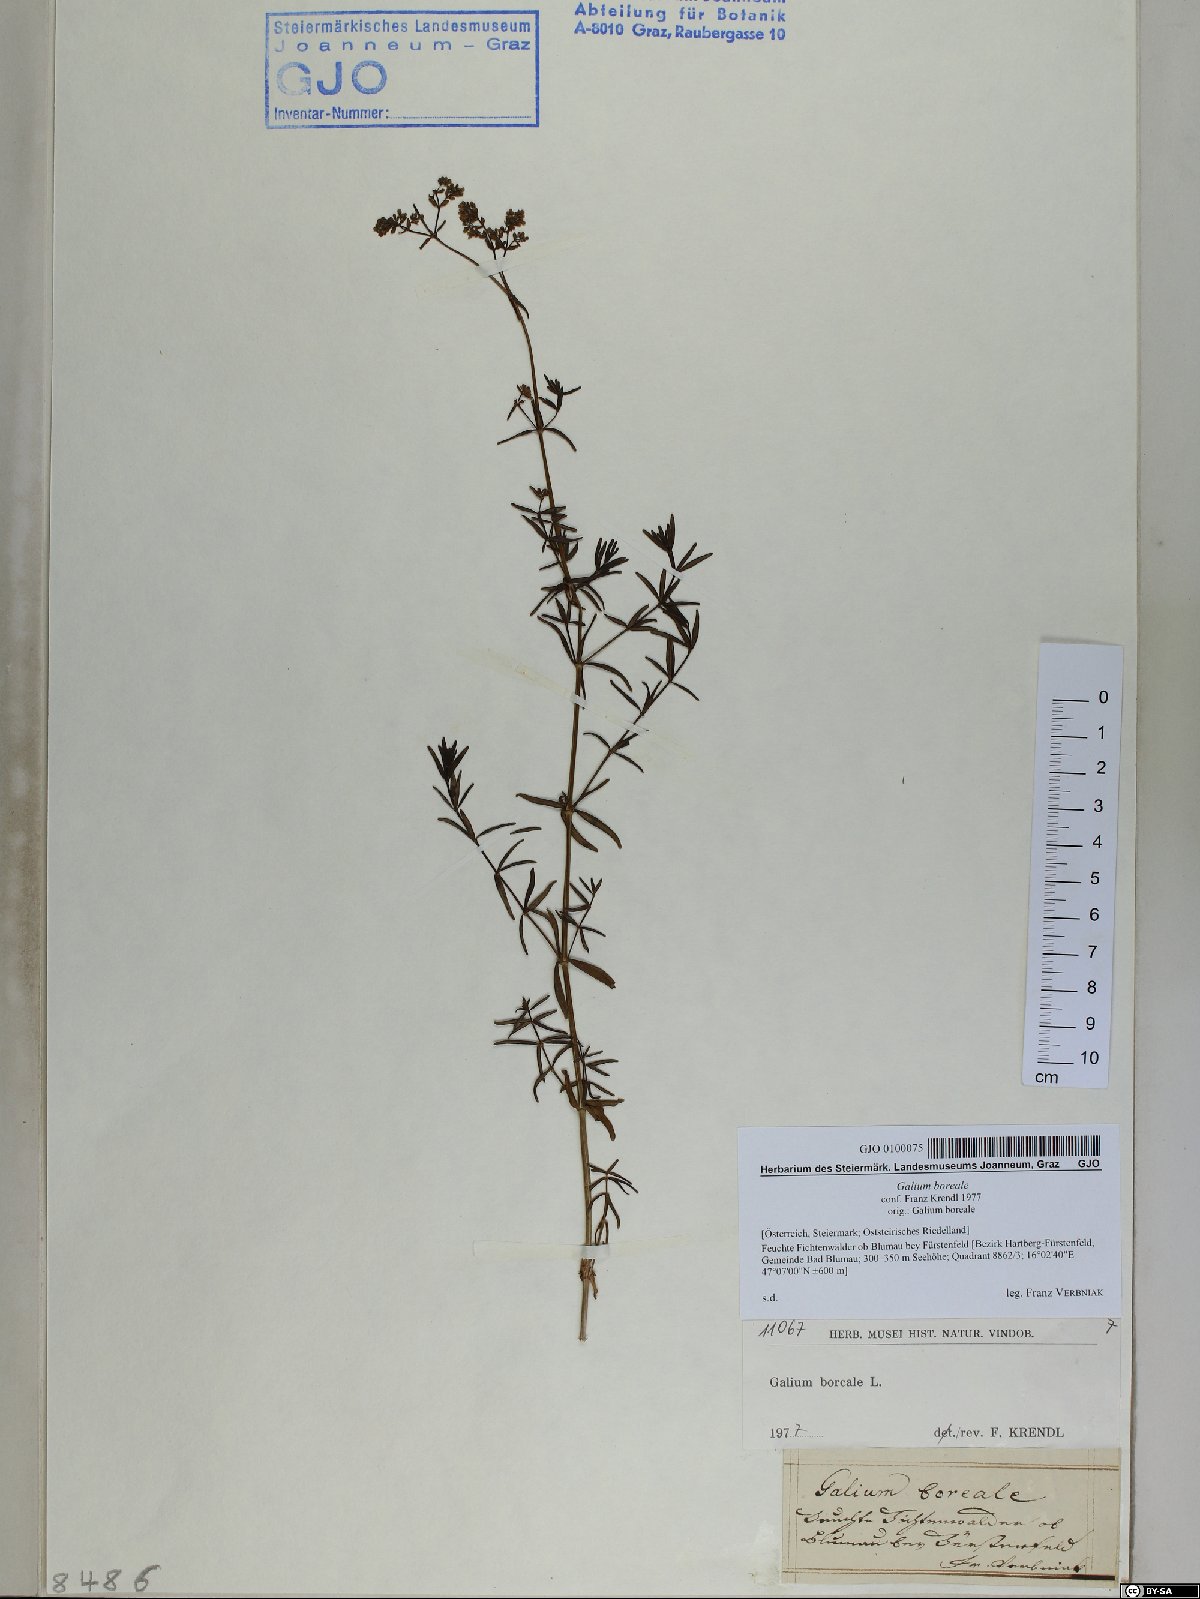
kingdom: Plantae
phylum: Tracheophyta
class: Magnoliopsida
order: Gentianales
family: Rubiaceae
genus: Galium
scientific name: Galium boreale
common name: Northern bedstraw
